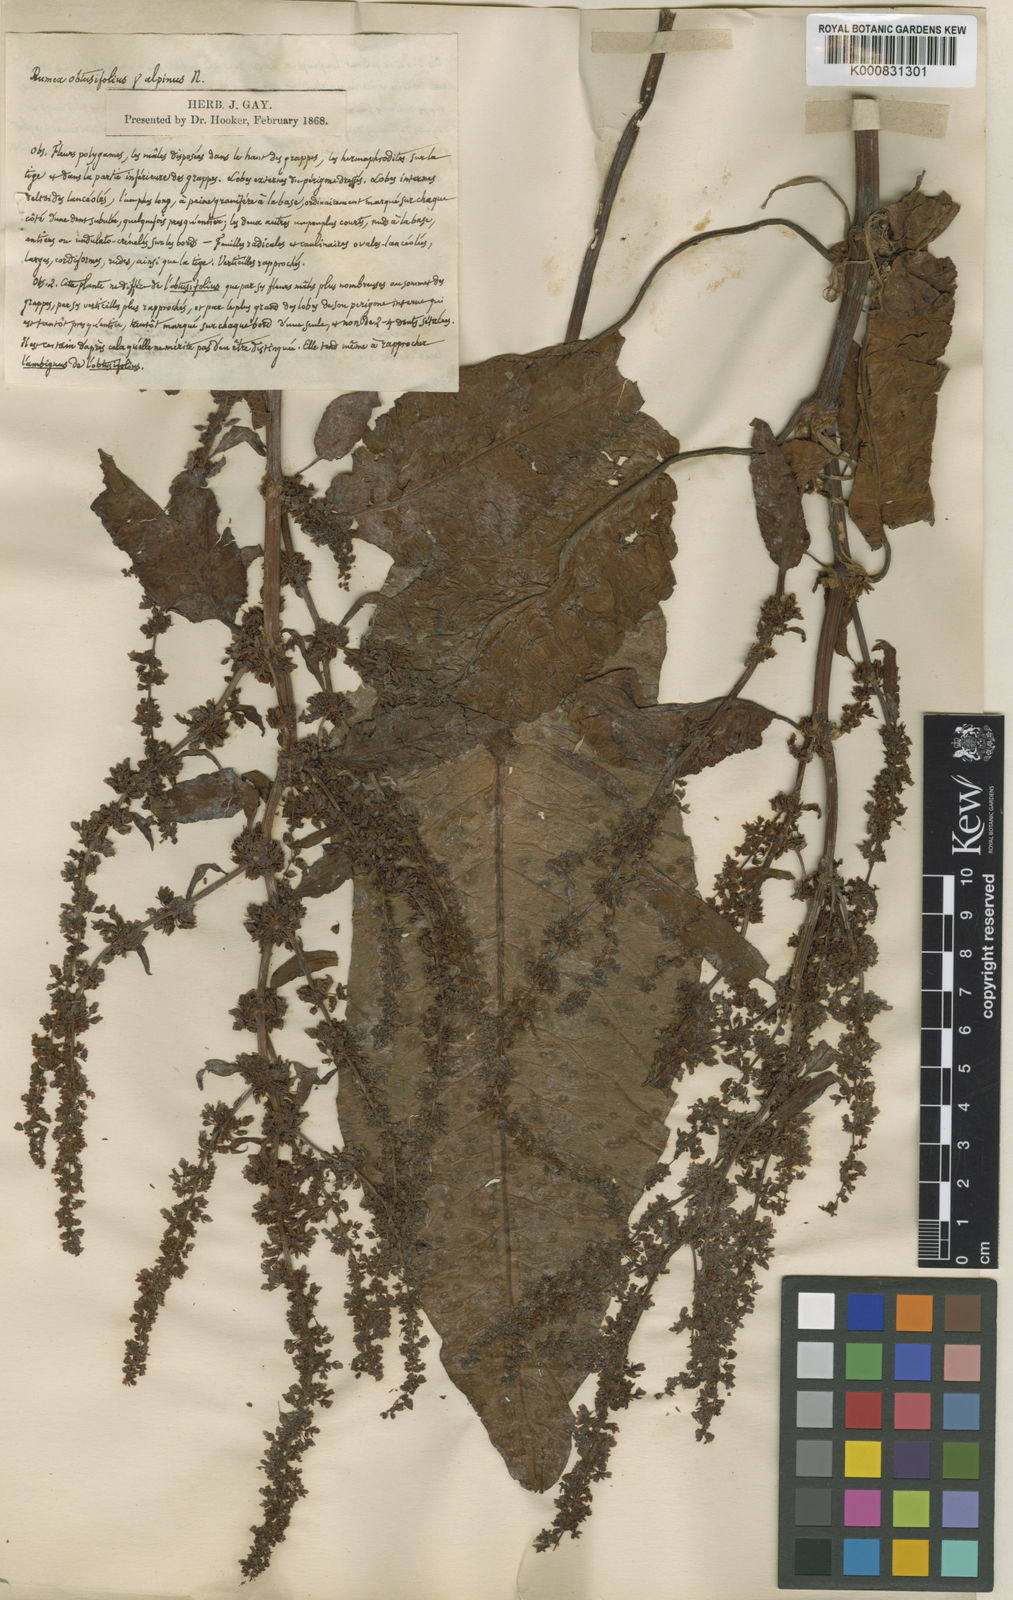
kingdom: Plantae
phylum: Tracheophyta
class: Magnoliopsida
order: Caryophyllales
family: Polygonaceae
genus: Rumex
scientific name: Rumex obtusifolius
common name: Bitter dock
